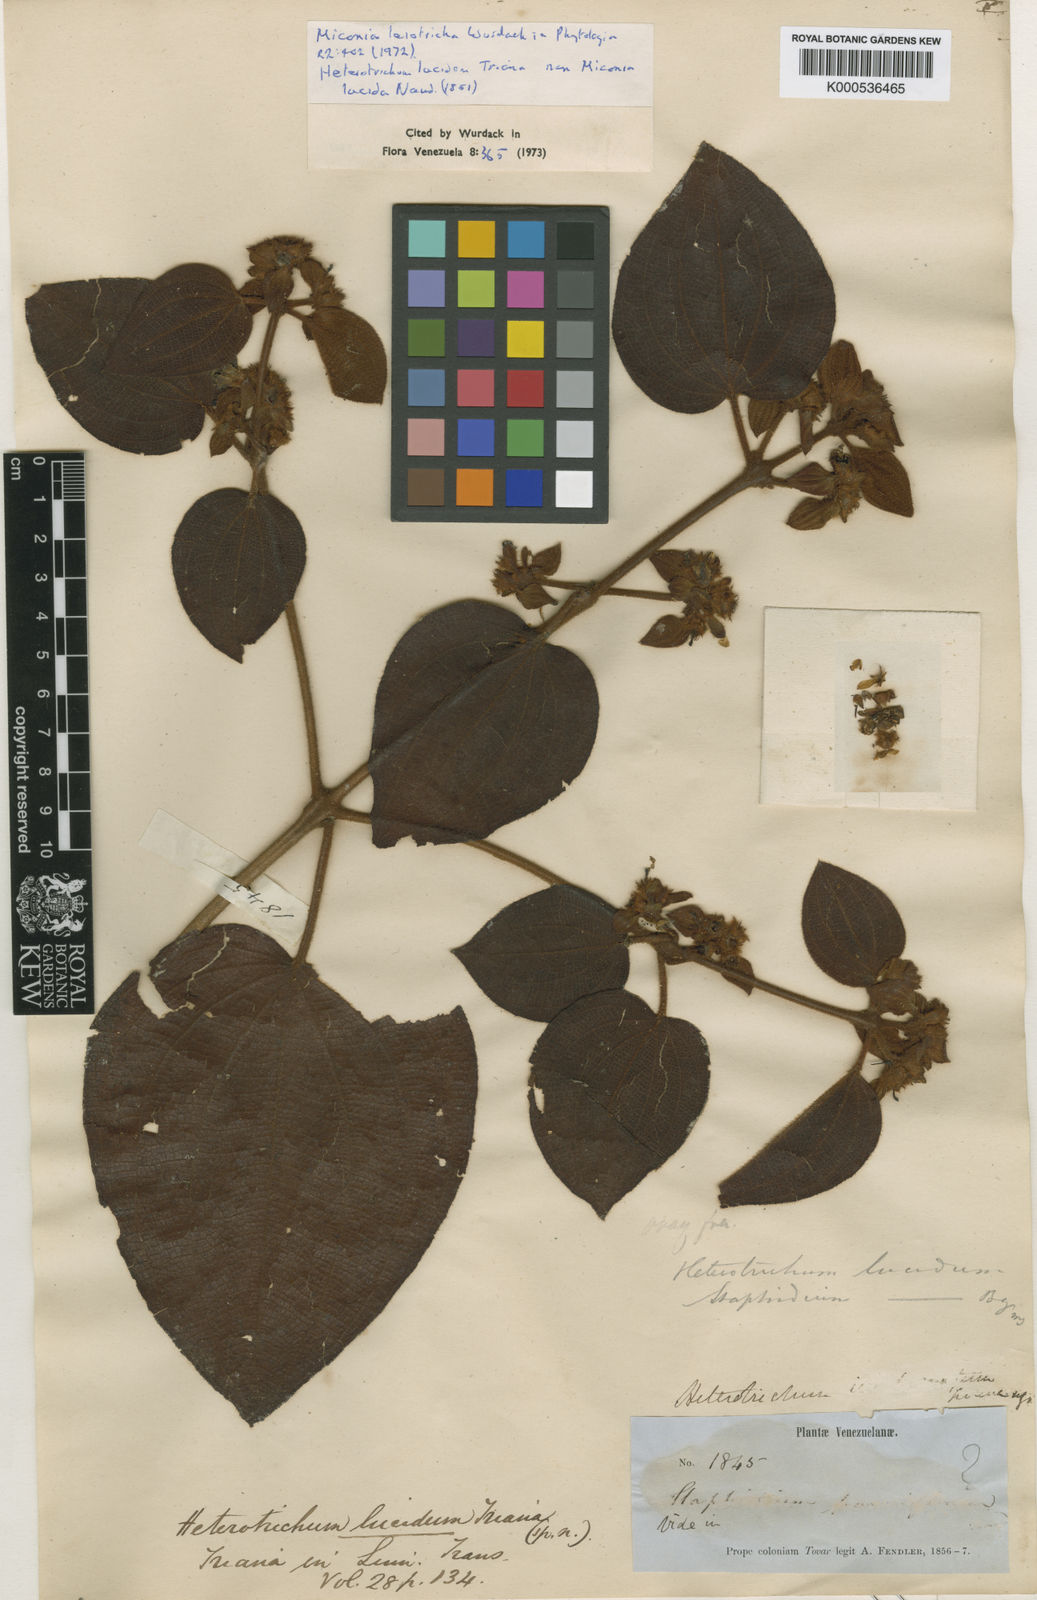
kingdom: Plantae
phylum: Tracheophyta
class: Magnoliopsida
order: Myrtales
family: Melastomataceae
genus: Miconia
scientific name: Miconia leiotricha
